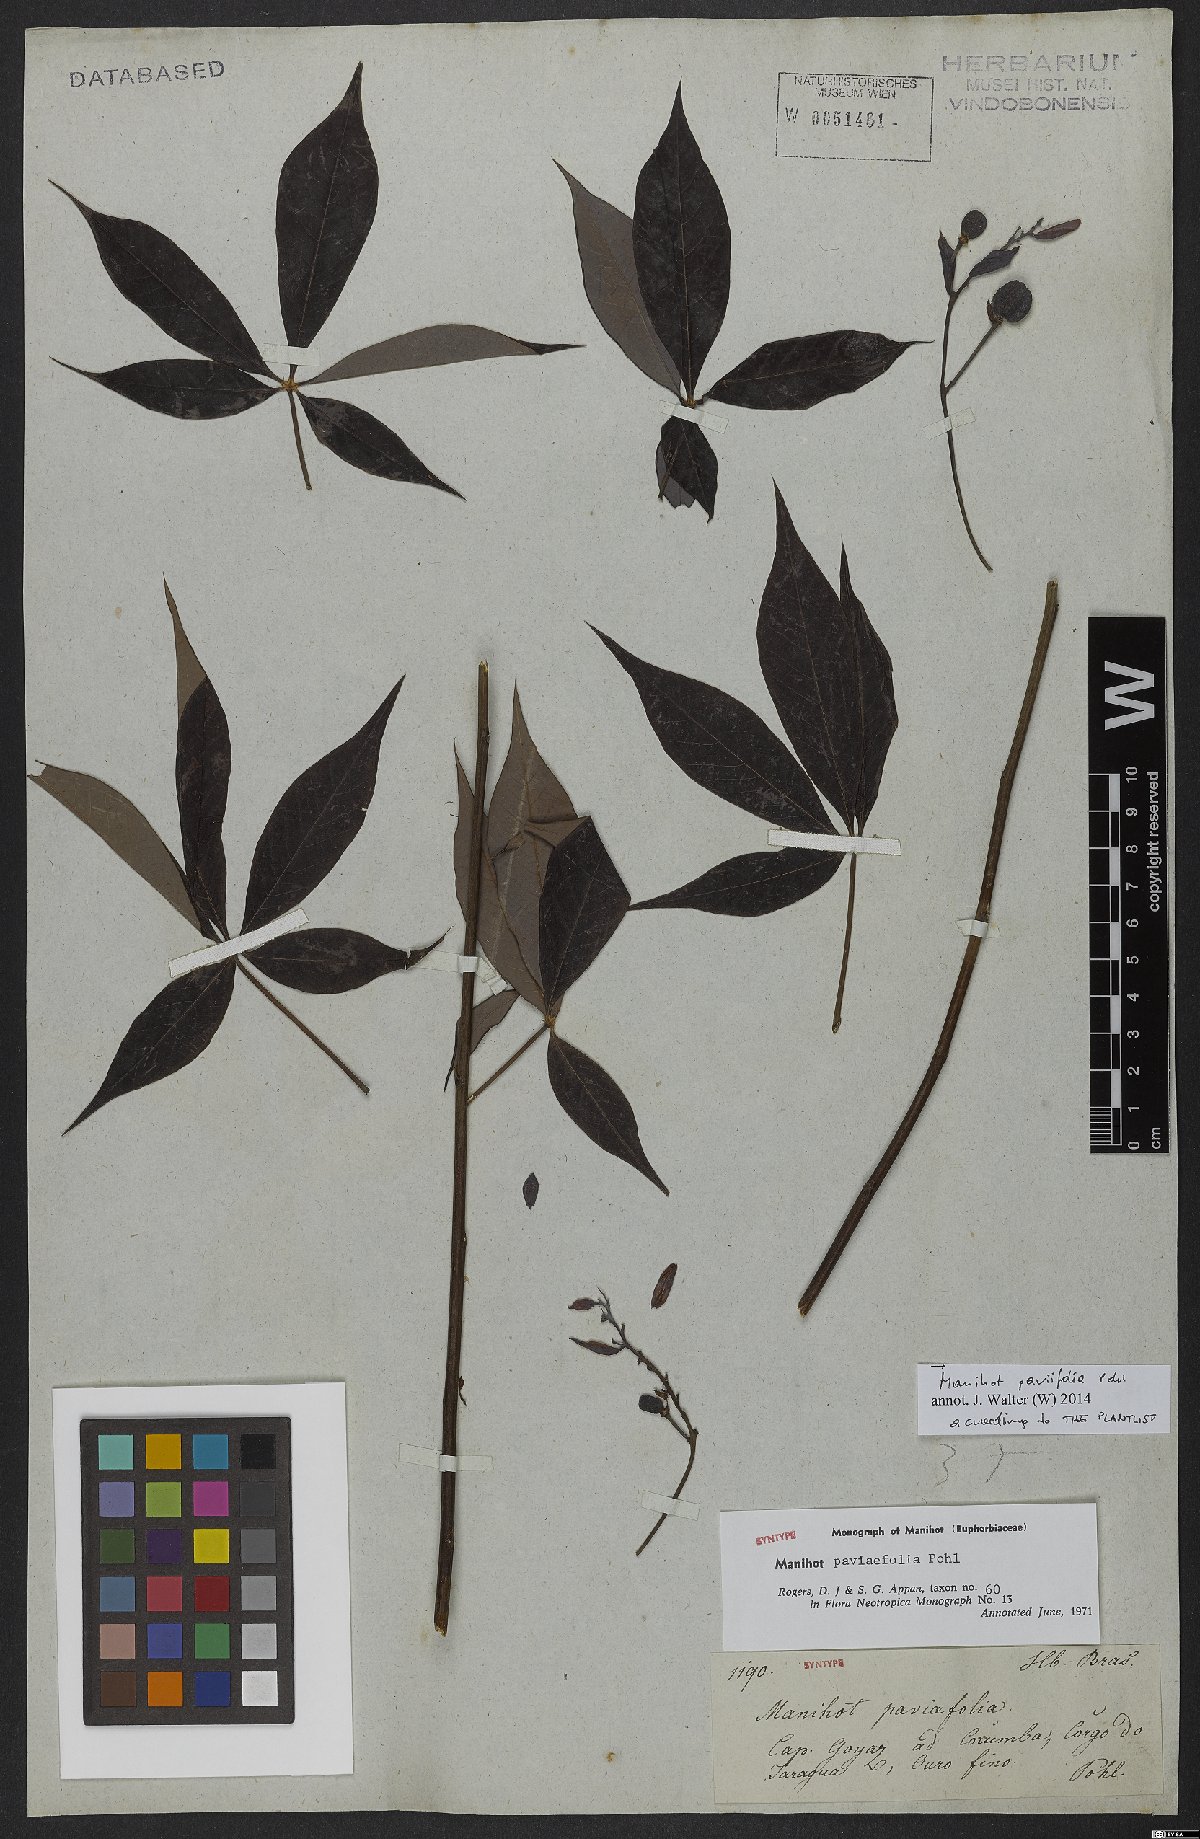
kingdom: Plantae
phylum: Tracheophyta
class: Magnoliopsida
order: Malpighiales
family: Euphorbiaceae
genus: Manihot
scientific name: Manihot paviifolia
